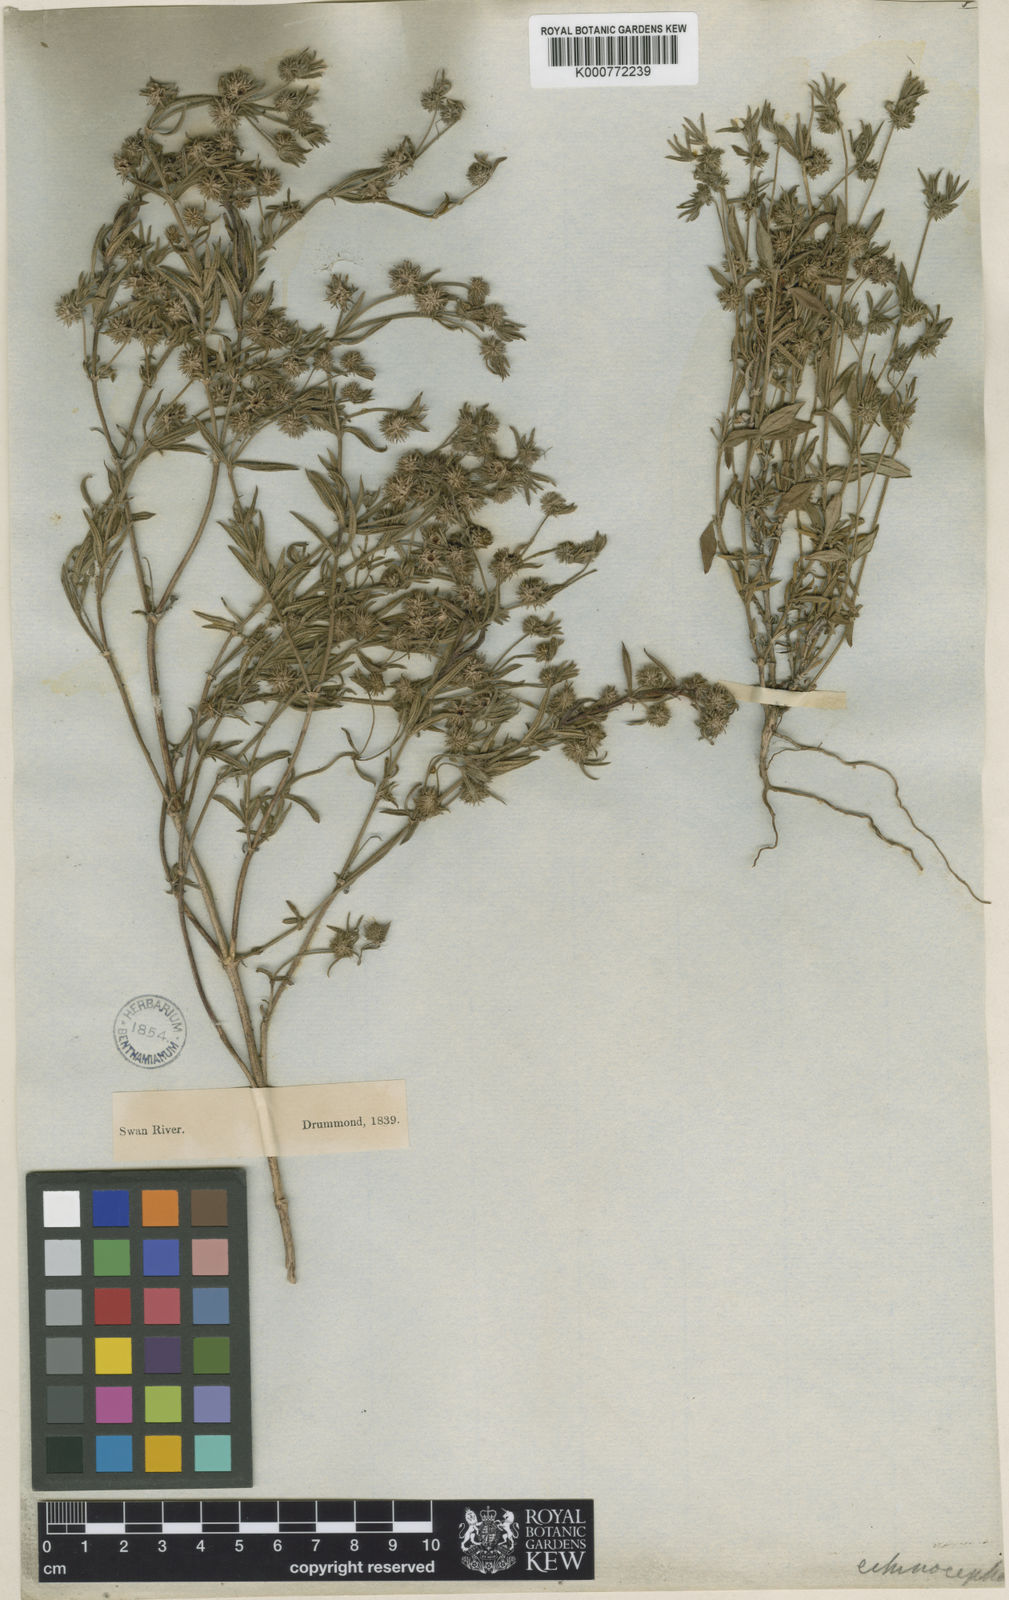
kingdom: Plantae
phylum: Tracheophyta
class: Magnoliopsida
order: Gentianales
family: Rubiaceae
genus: Opercularia
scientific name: Opercularia echinocephala
